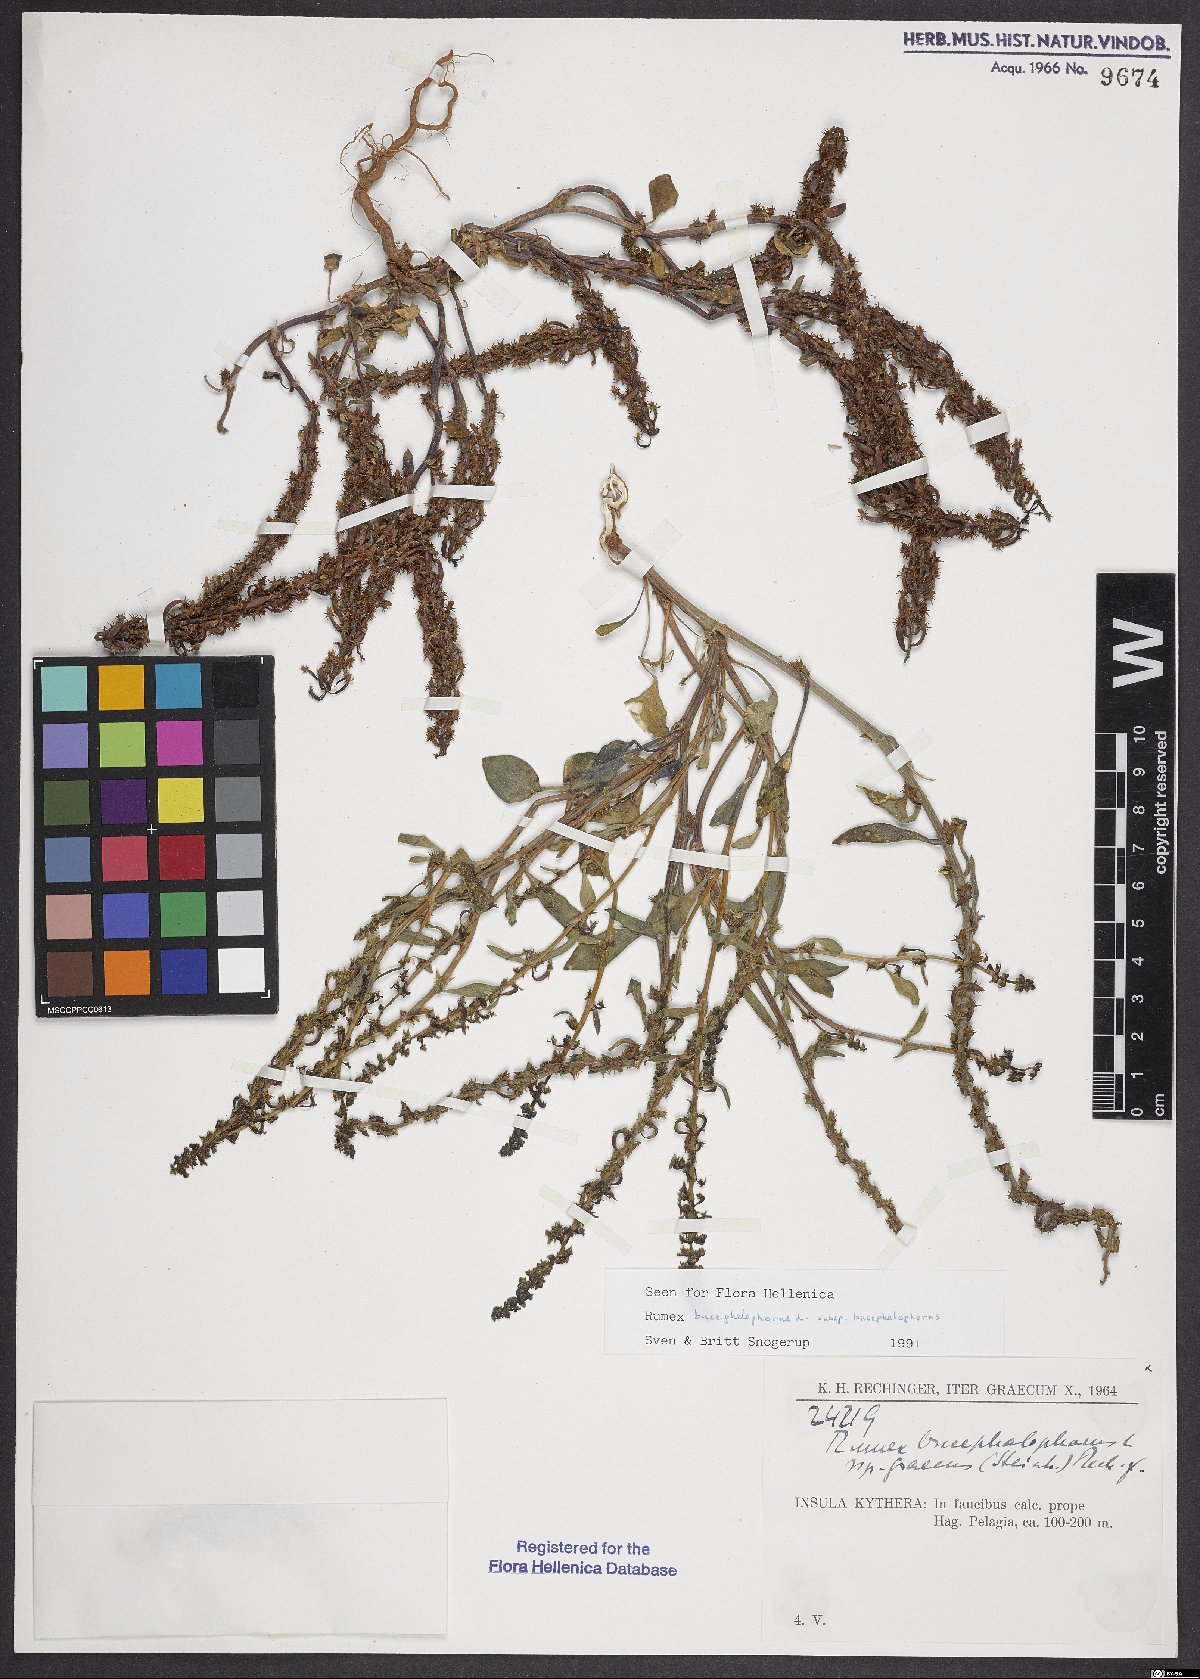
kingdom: Plantae
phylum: Tracheophyta
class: Magnoliopsida
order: Caryophyllales
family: Polygonaceae
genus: Rumex
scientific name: Rumex bucephalophorus
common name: Red dock
